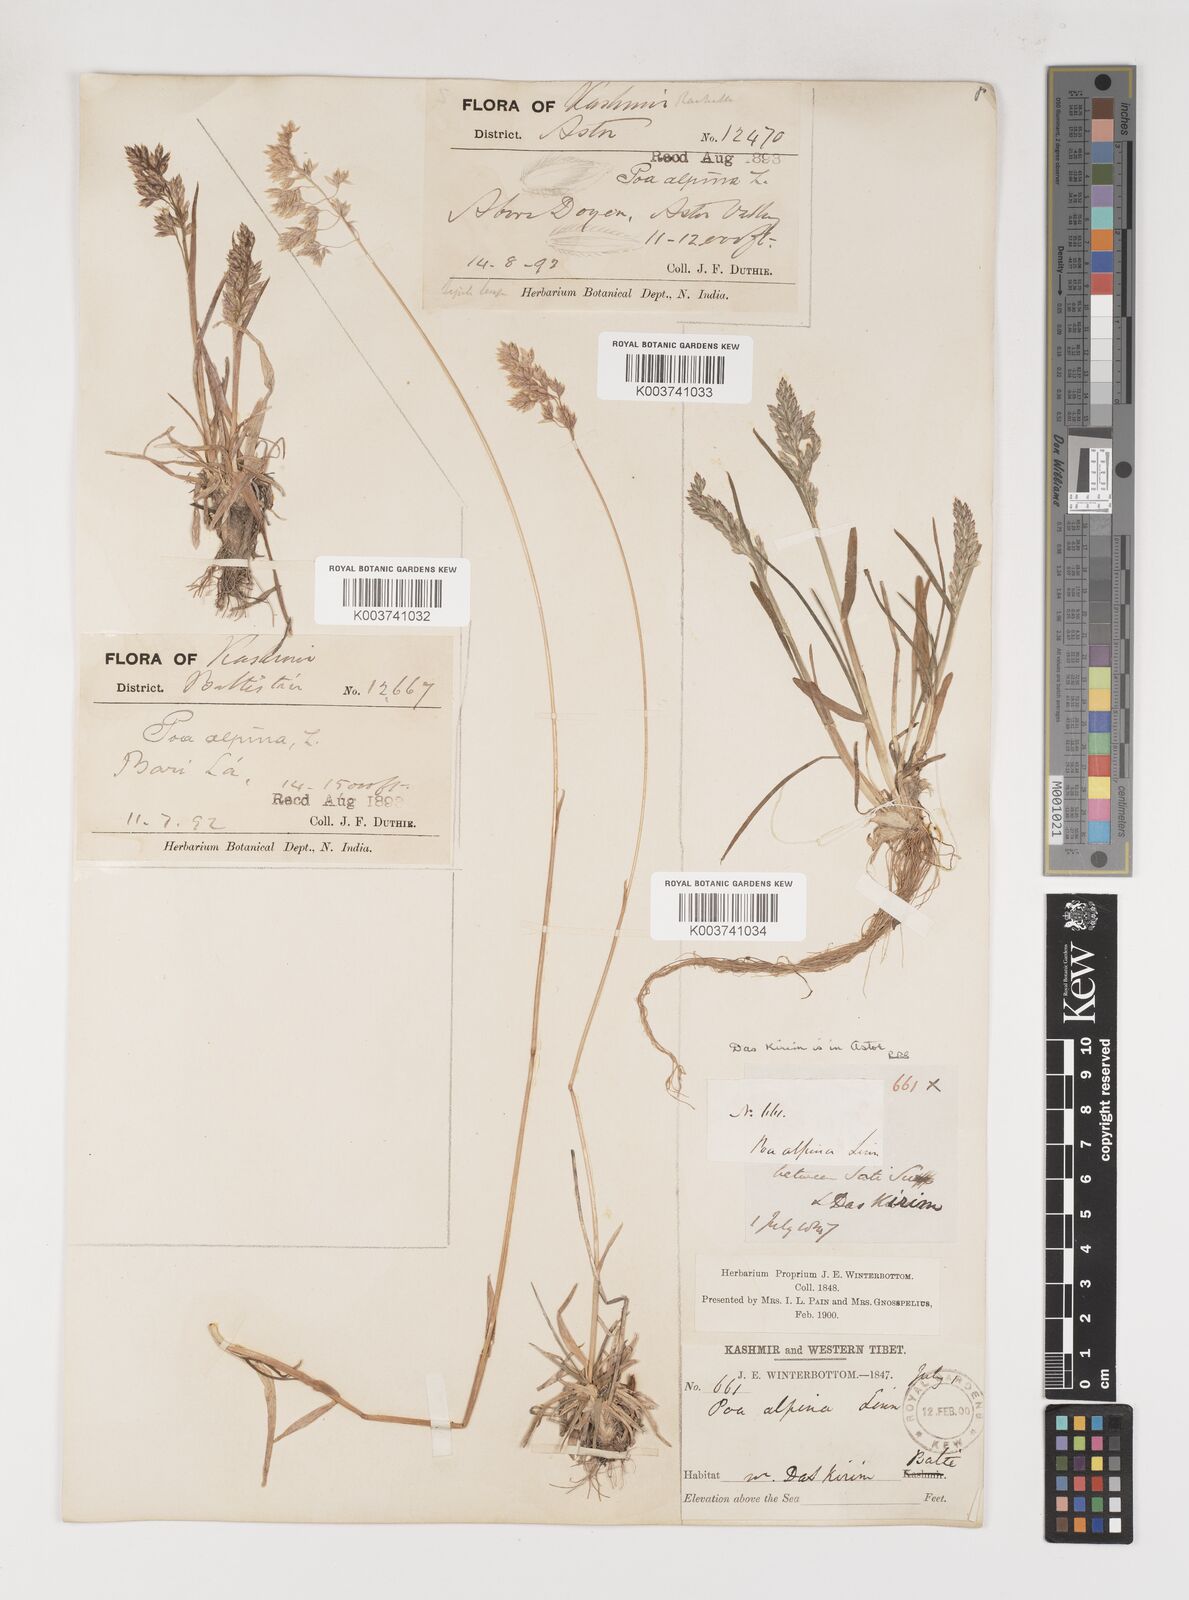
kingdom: Plantae
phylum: Tracheophyta
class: Liliopsida
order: Poales
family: Poaceae
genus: Poa
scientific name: Poa alpina
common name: Alpine bluegrass
